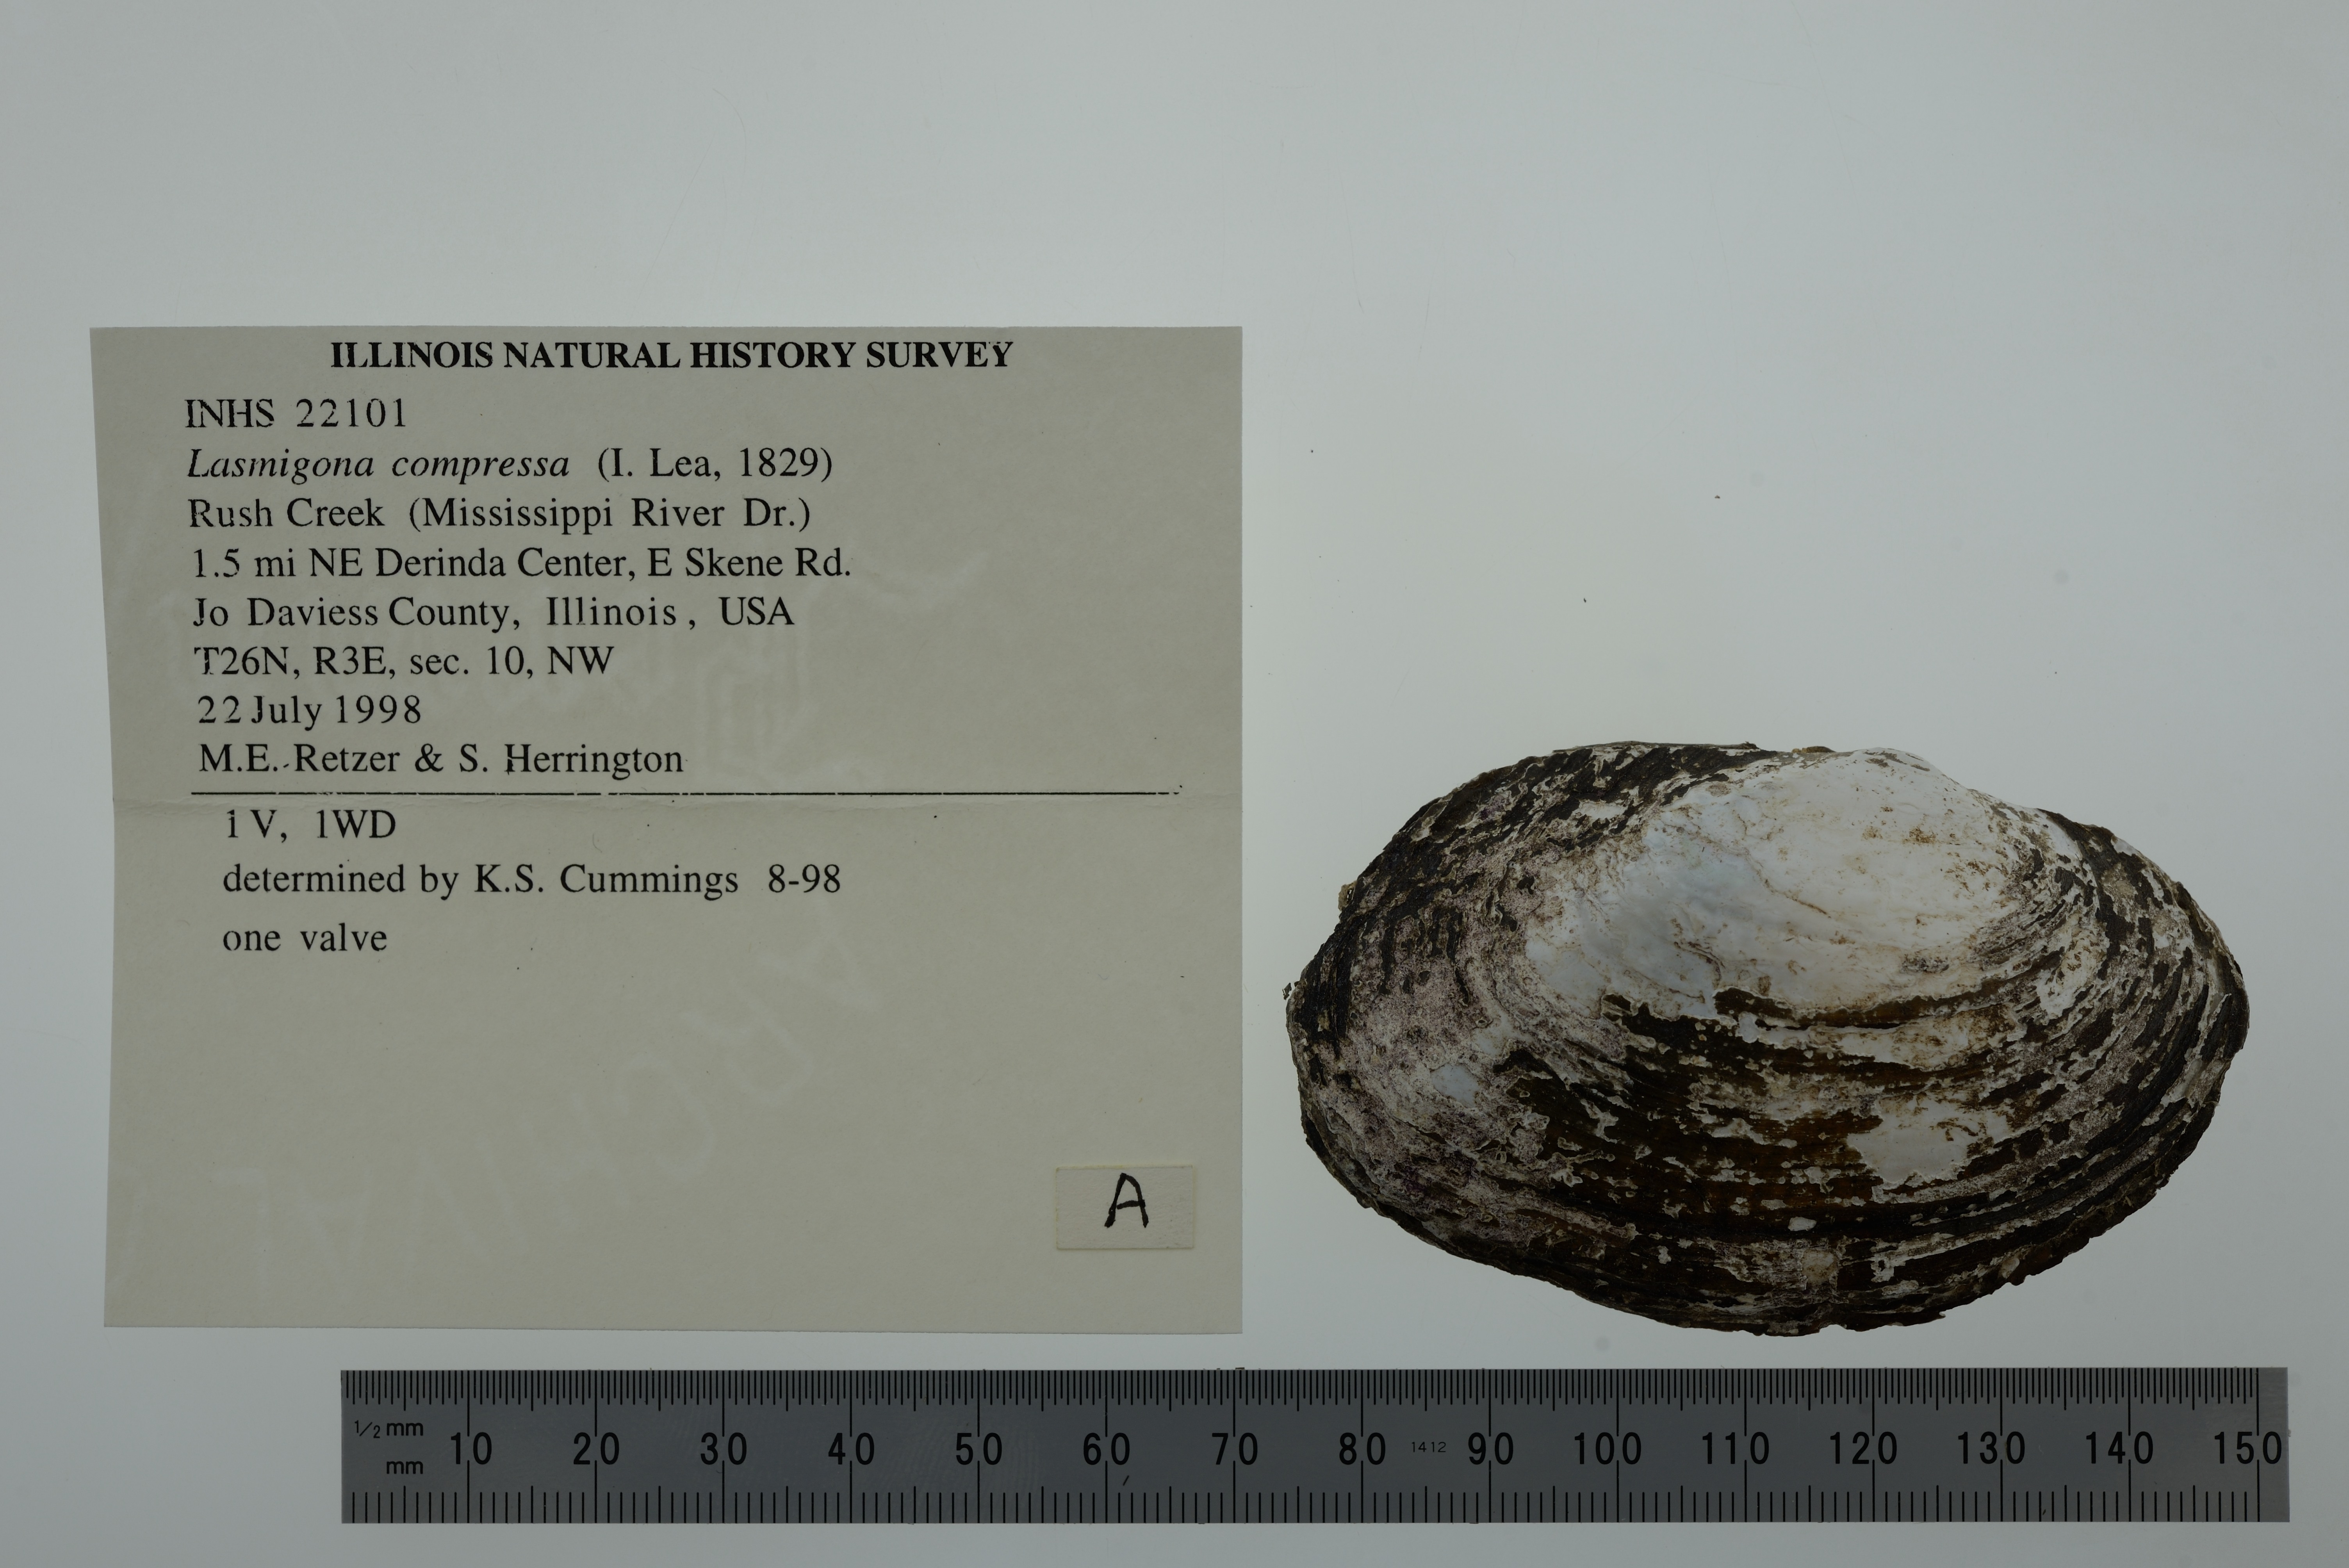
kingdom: Animalia
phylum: Mollusca
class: Bivalvia
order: Unionida
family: Unionidae
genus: Lasmigona
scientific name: Lasmigona compressa
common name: Creek heelsplitter
